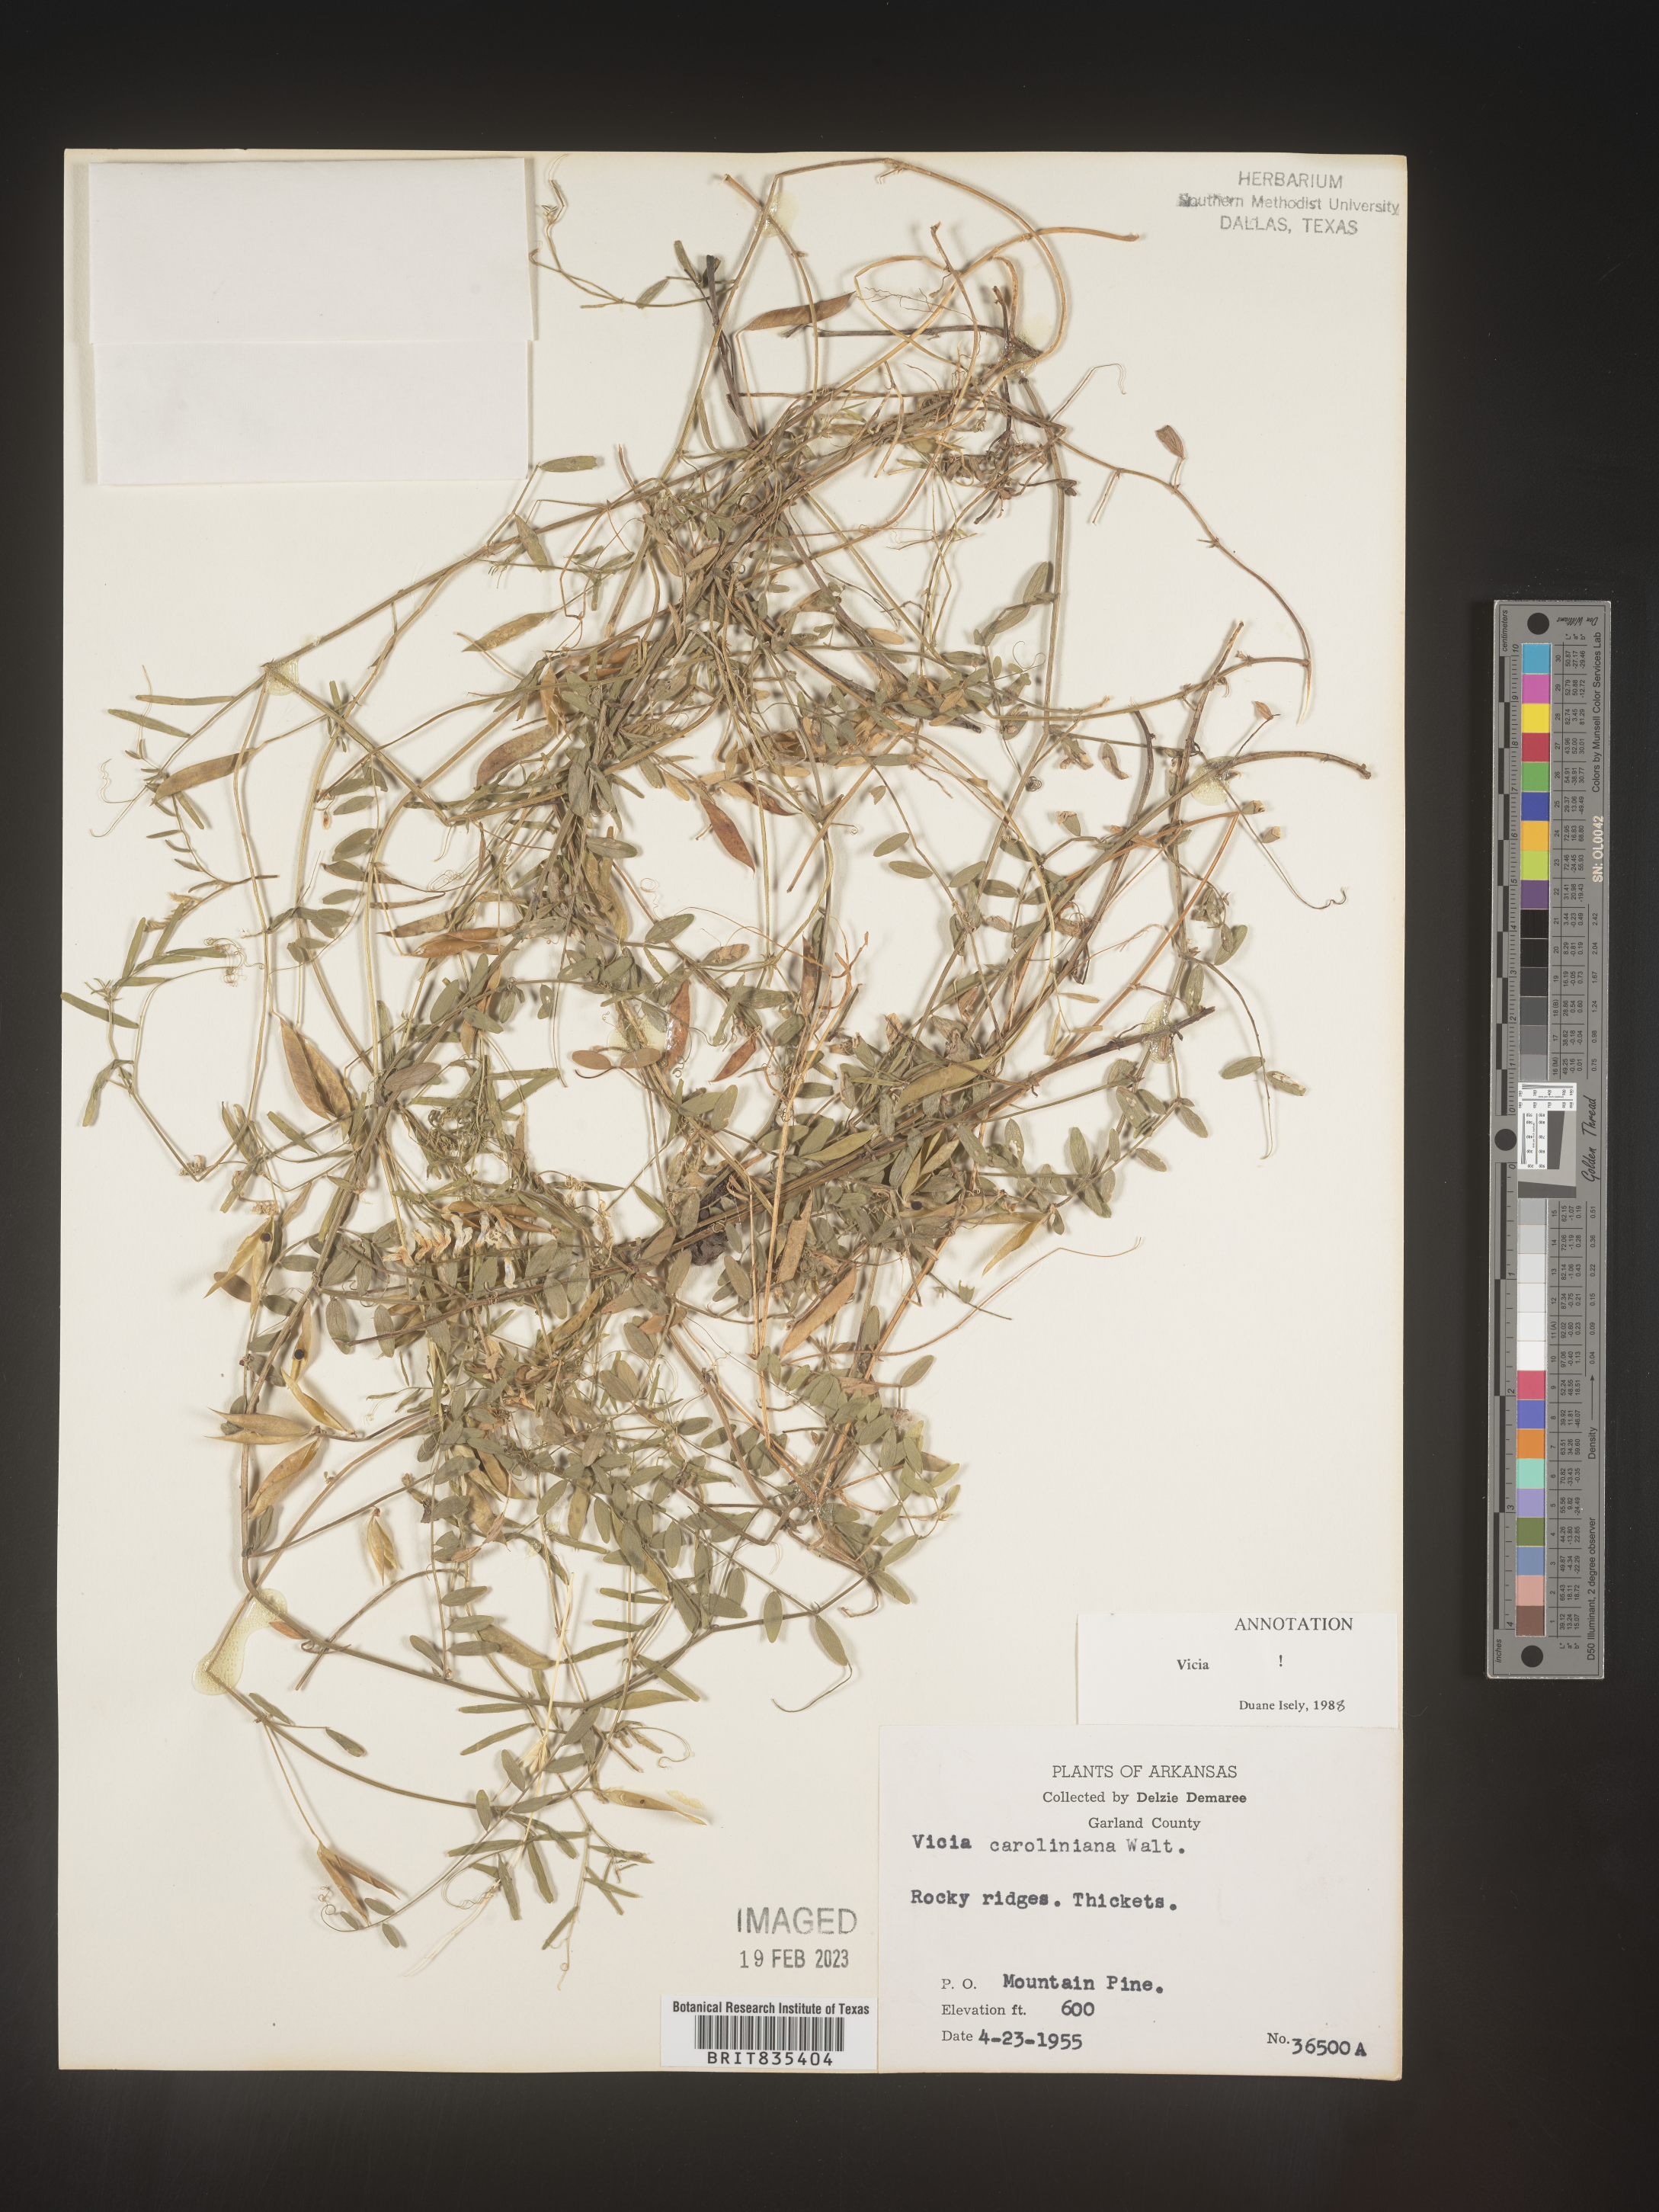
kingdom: Plantae
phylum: Tracheophyta
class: Magnoliopsida
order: Fabales
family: Fabaceae
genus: Vicia
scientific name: Vicia caroliniana
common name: Carolina vetch
